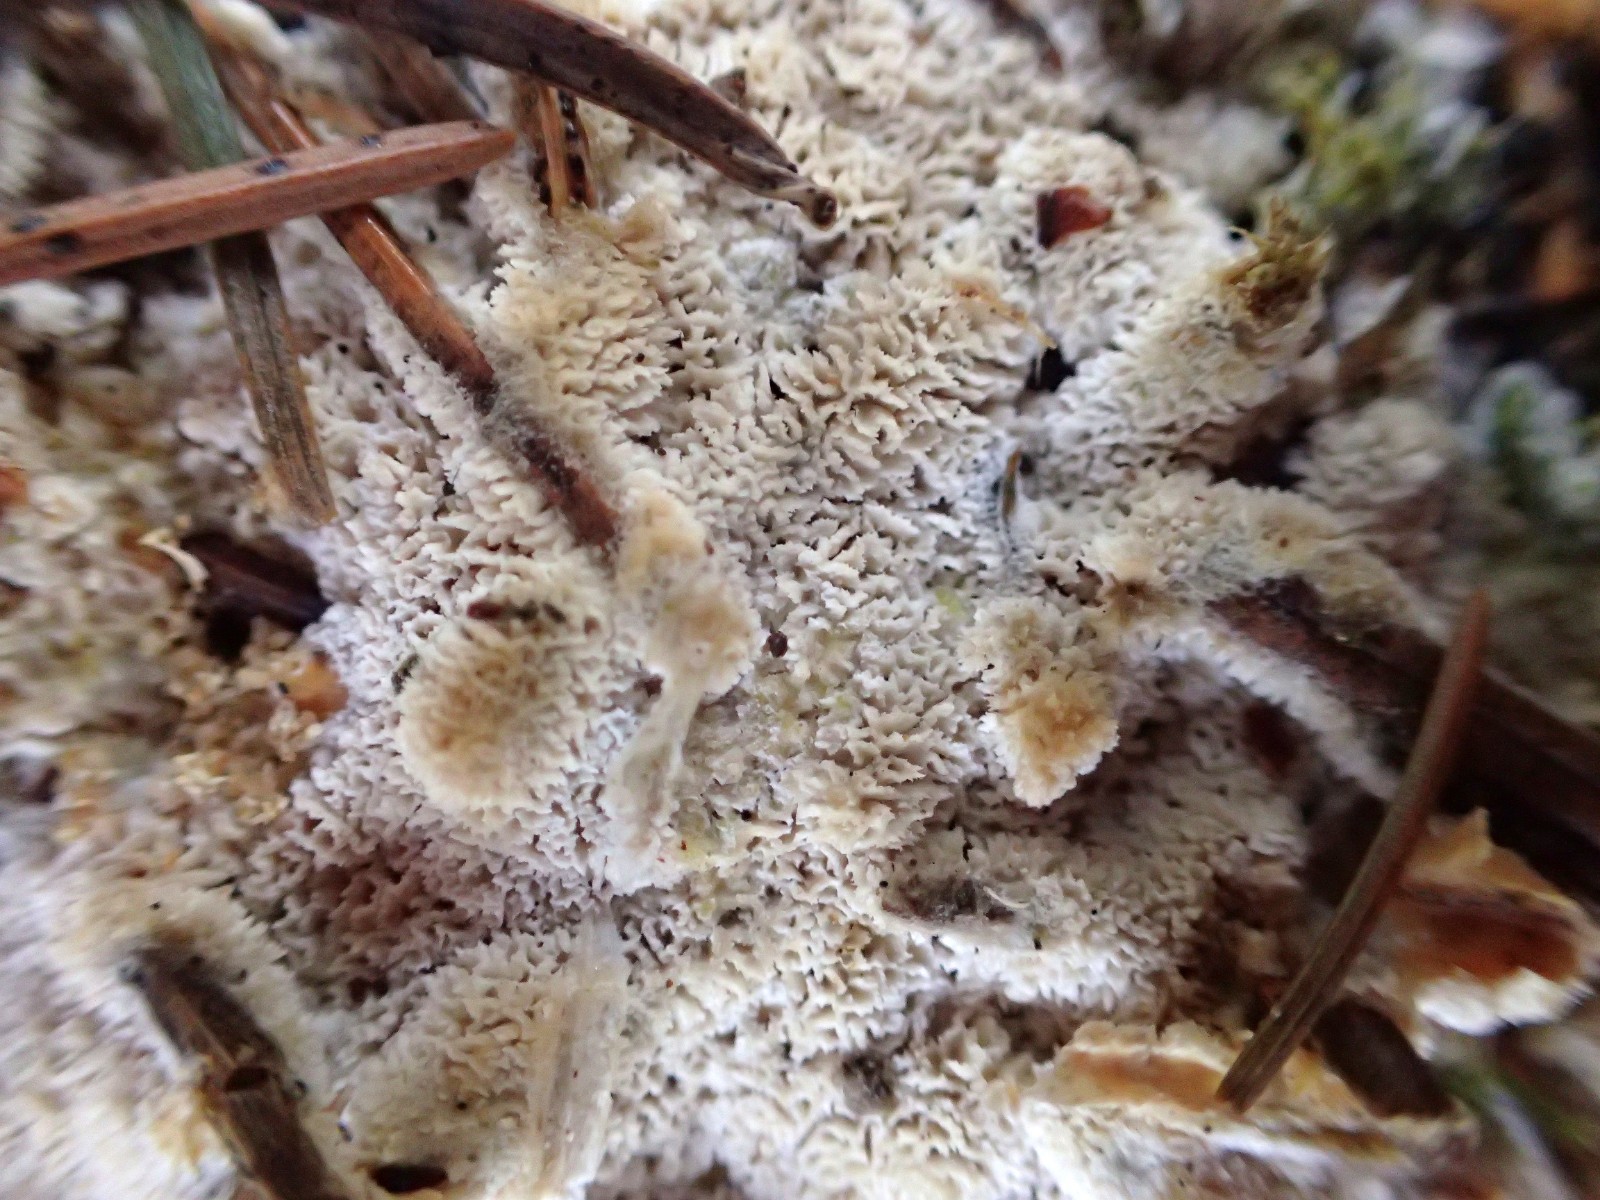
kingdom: Fungi
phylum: Basidiomycota
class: Agaricomycetes
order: Polyporales
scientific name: Polyporales
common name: poresvampordenen
